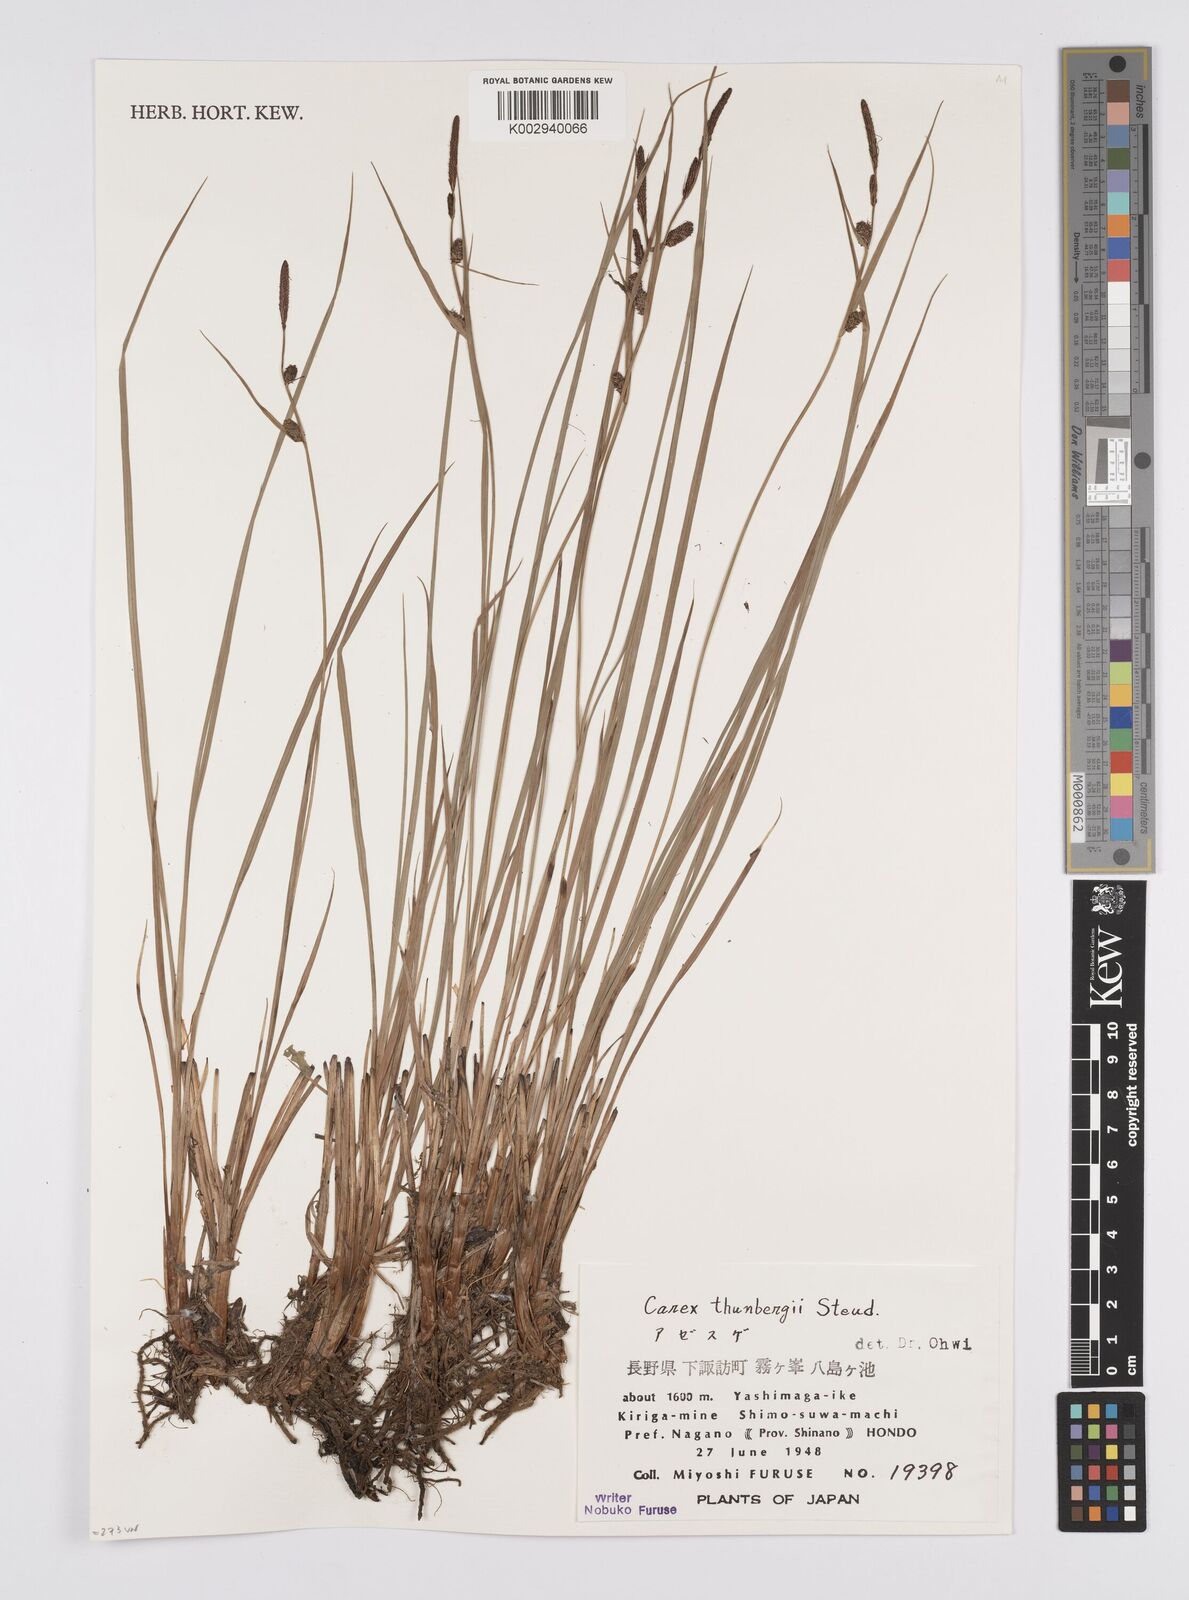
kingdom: Plantae
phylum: Tracheophyta
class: Liliopsida
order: Poales
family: Cyperaceae
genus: Carex
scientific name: Carex thunbergii
